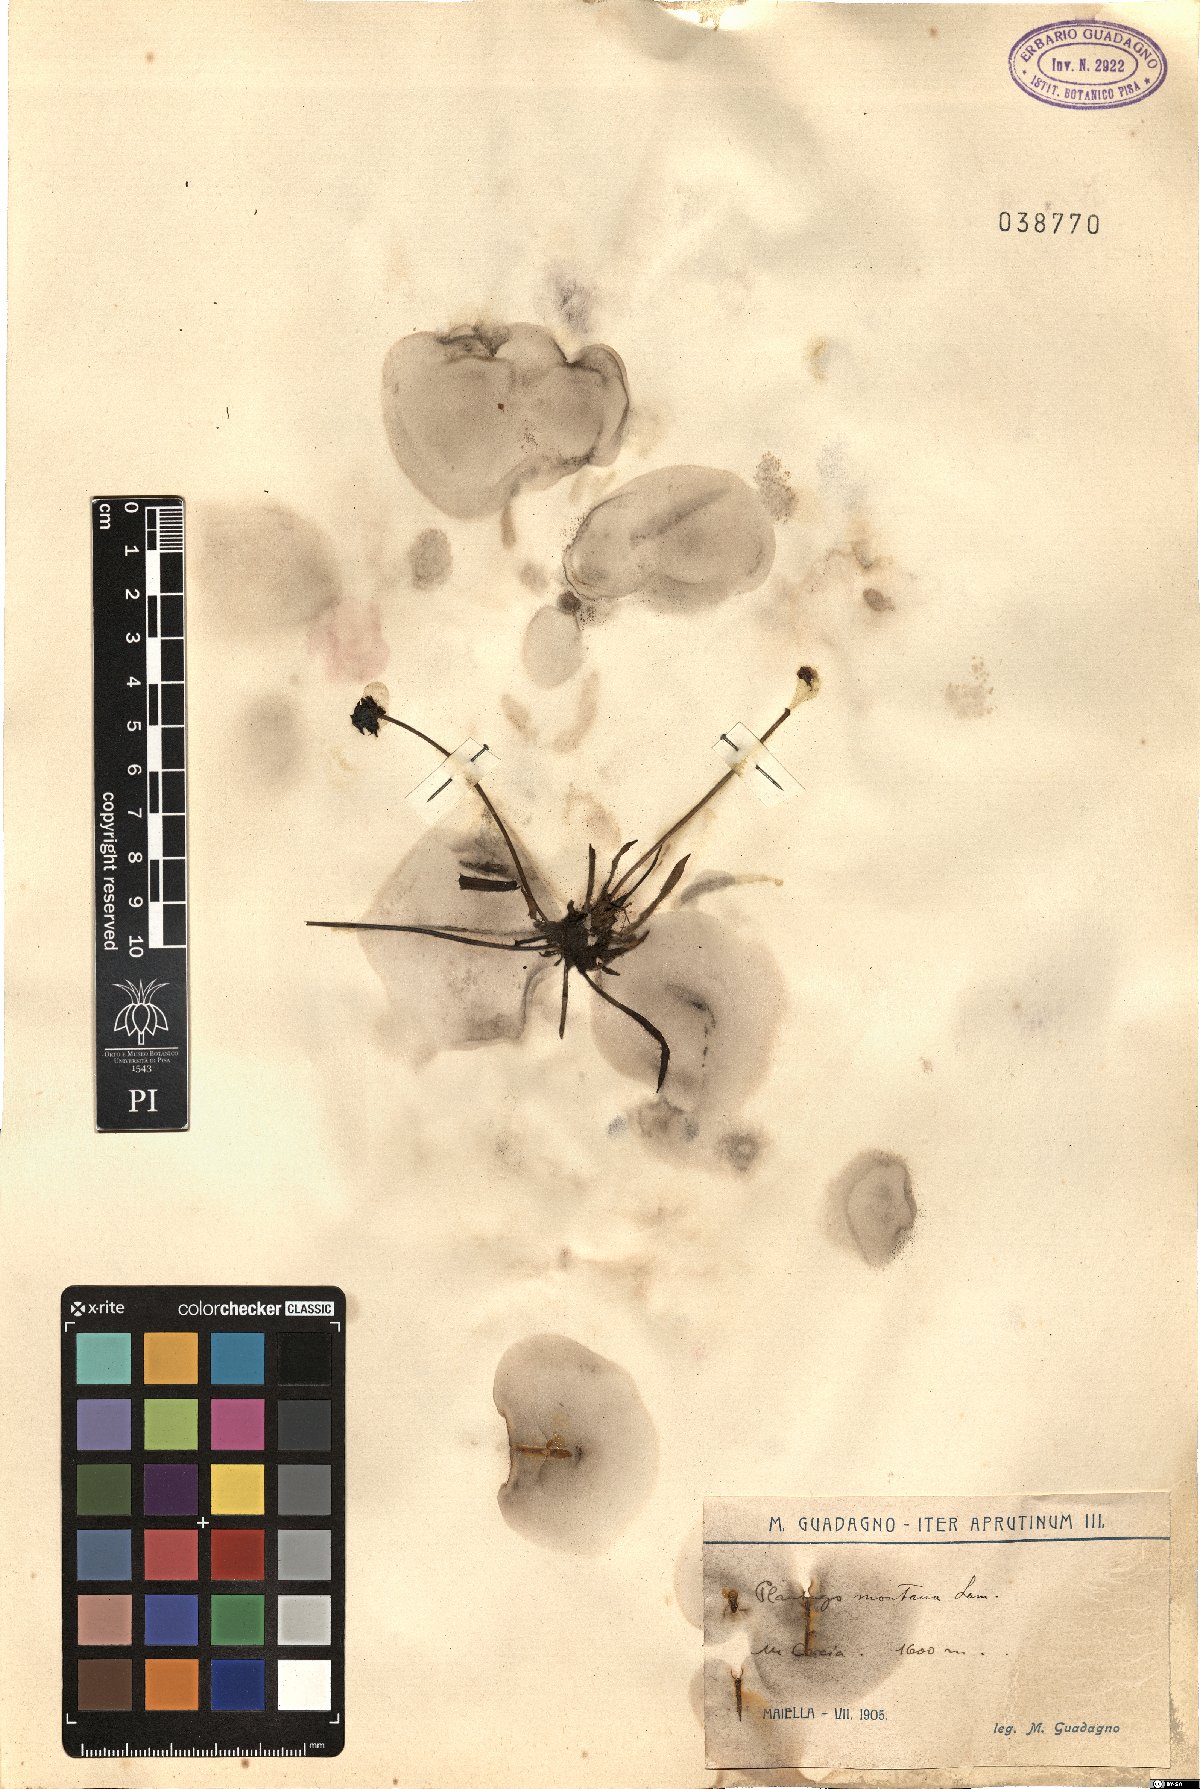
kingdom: Plantae
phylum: Tracheophyta
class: Magnoliopsida
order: Lamiales
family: Plantaginaceae
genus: Plantago
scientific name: Plantago atrata
